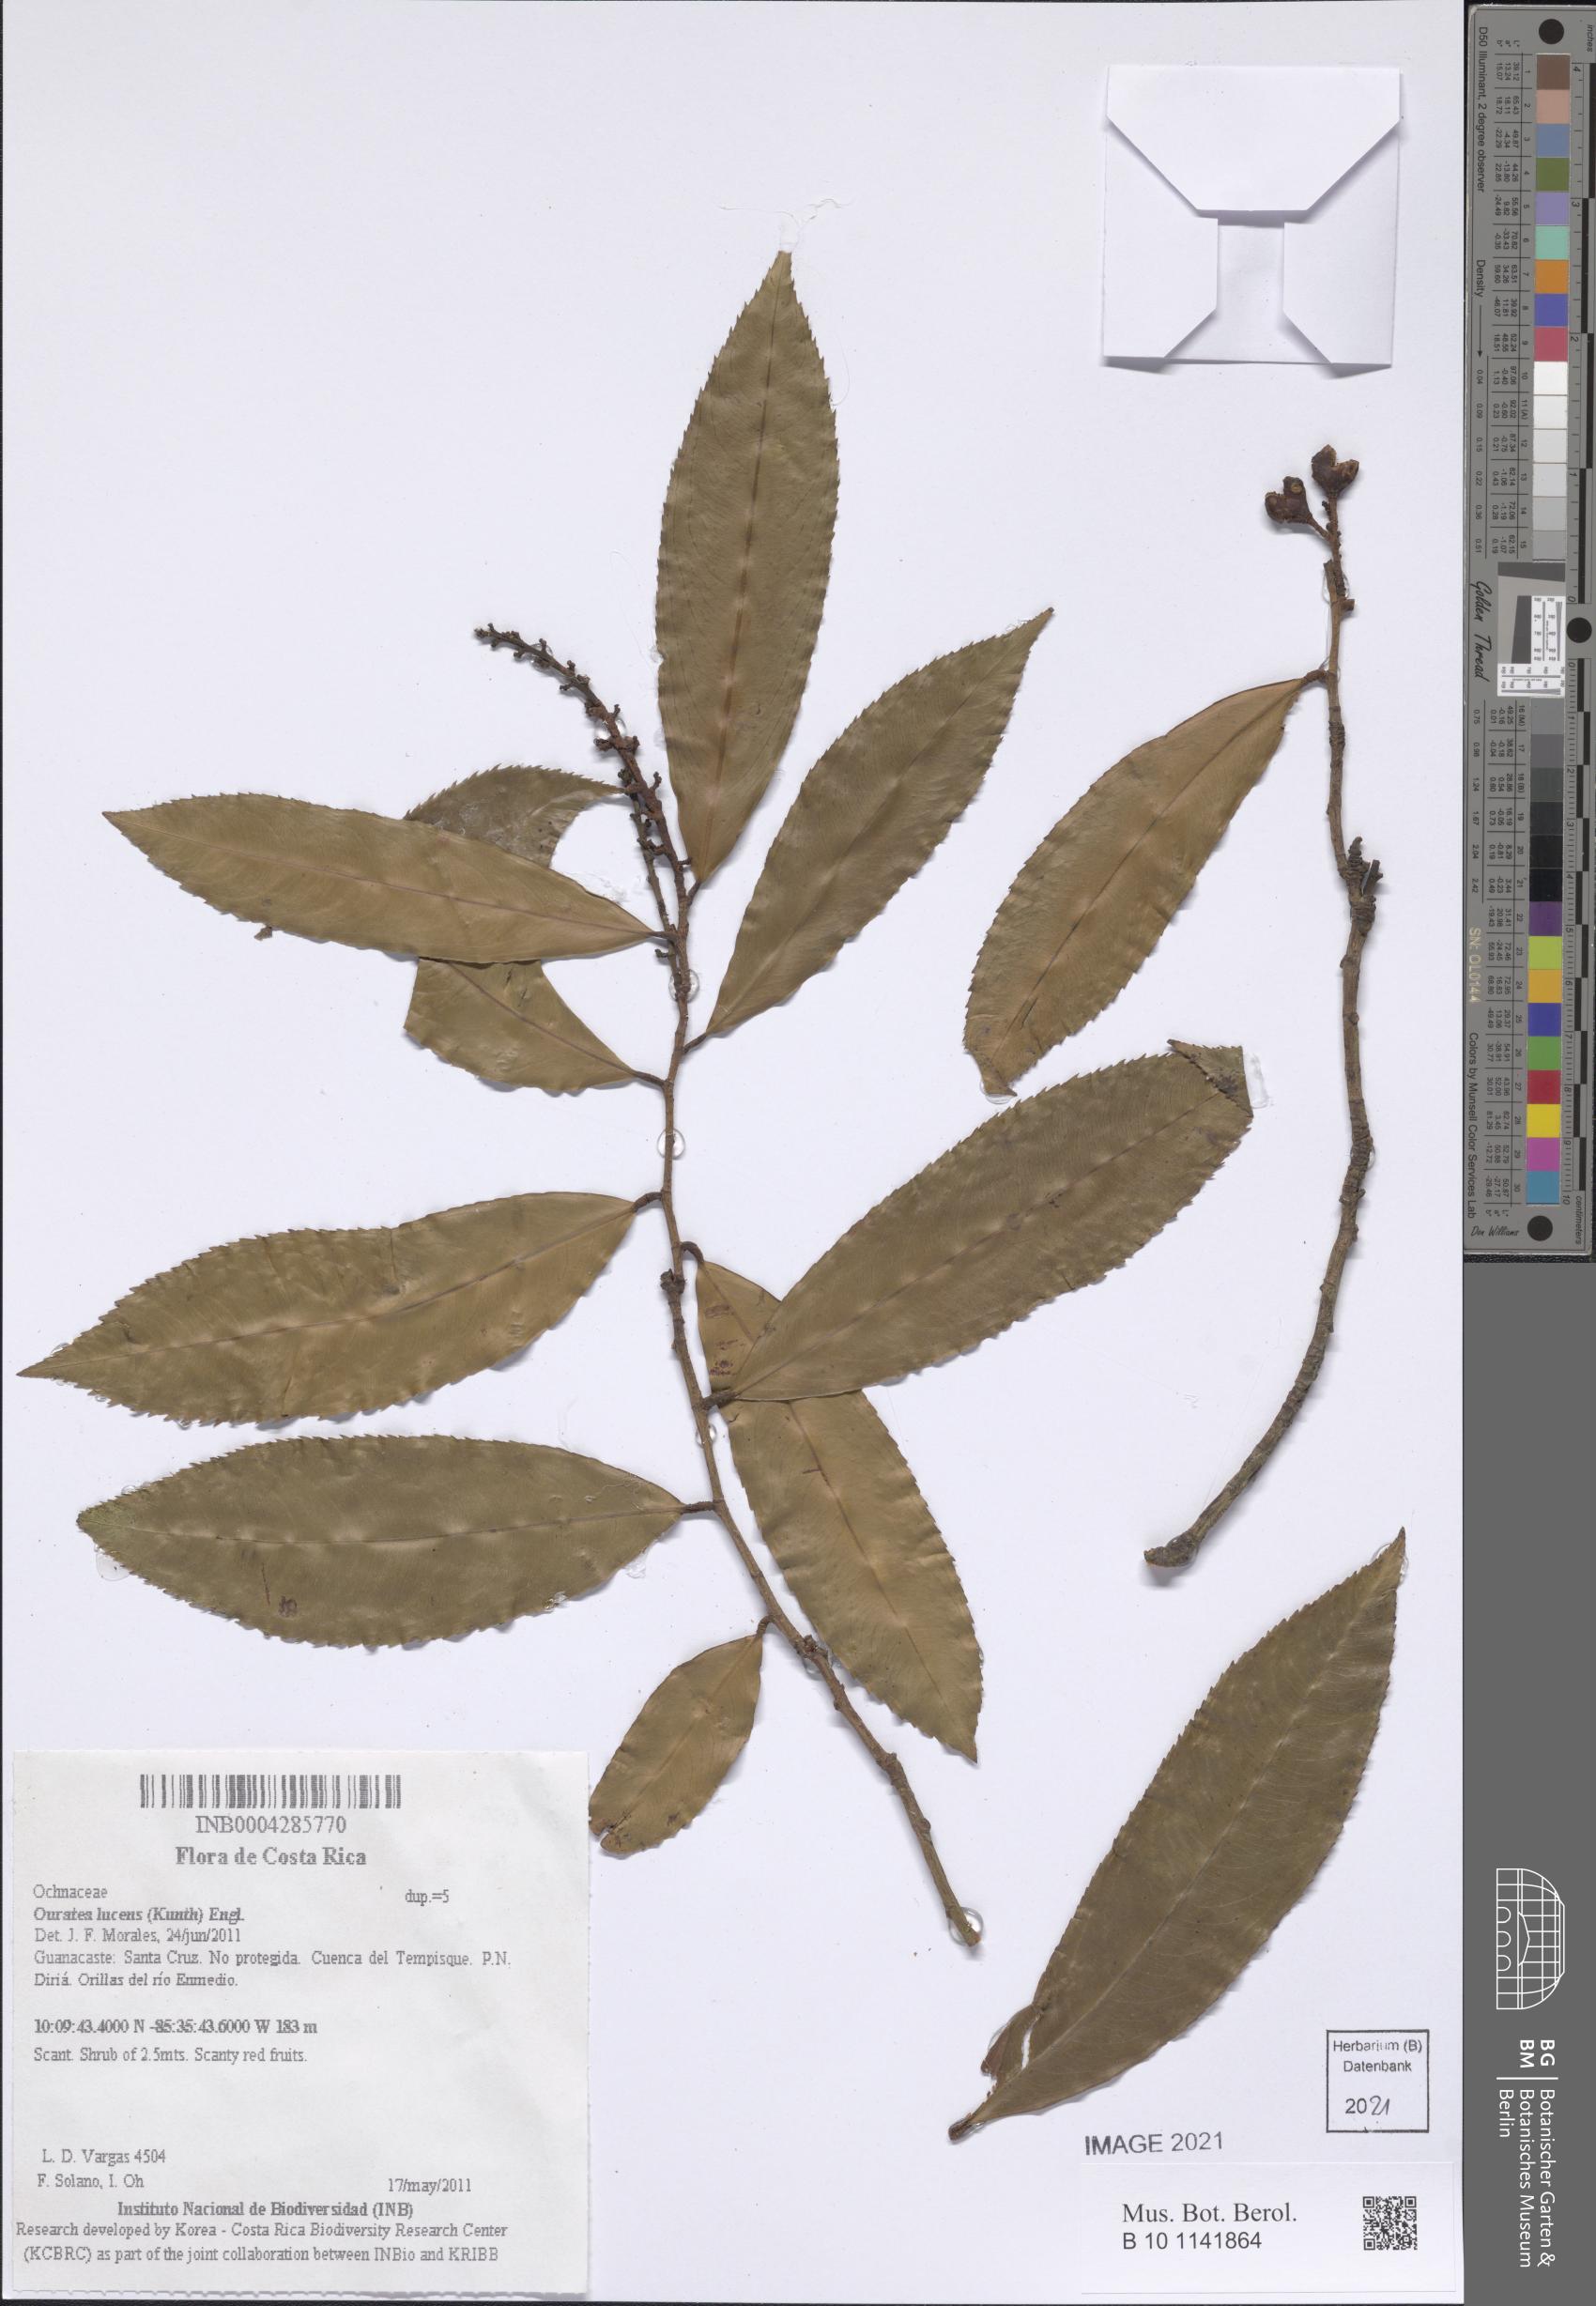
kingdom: Plantae
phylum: Tracheophyta
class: Magnoliopsida
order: Malpighiales
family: Ochnaceae
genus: Ouratea
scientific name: Ouratea lucens
